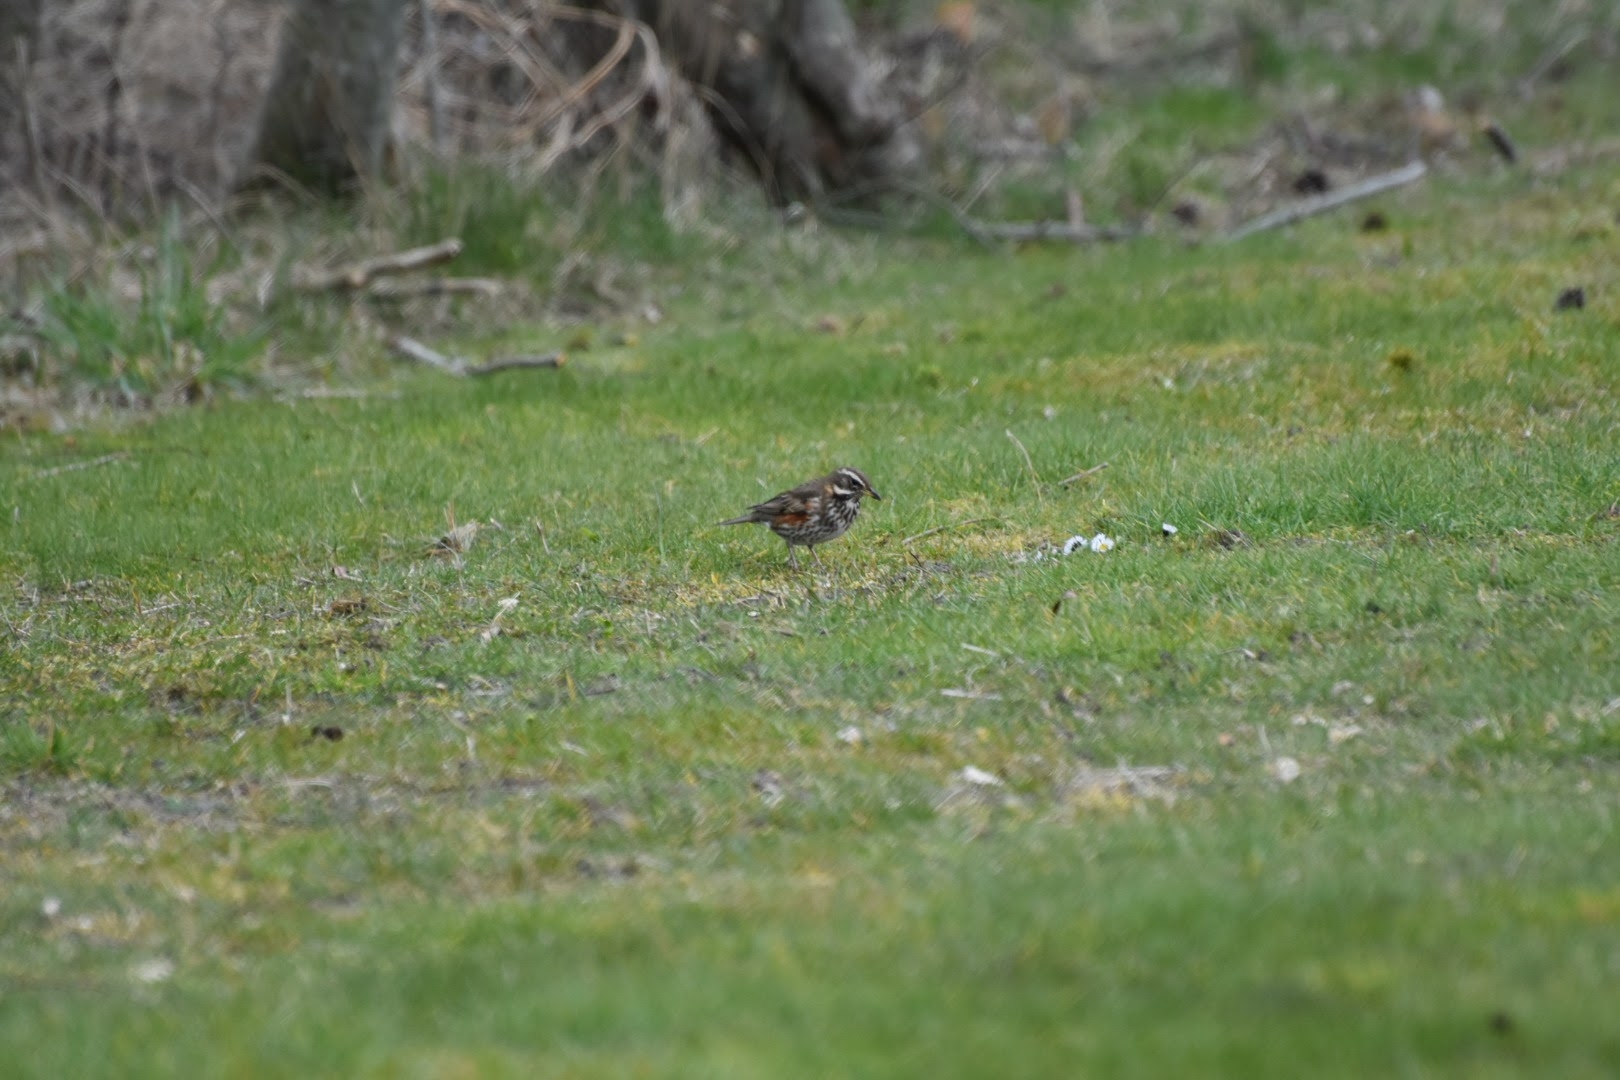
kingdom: Animalia
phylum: Chordata
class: Aves
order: Passeriformes
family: Turdidae
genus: Turdus
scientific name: Turdus iliacus
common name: Vindrossel
